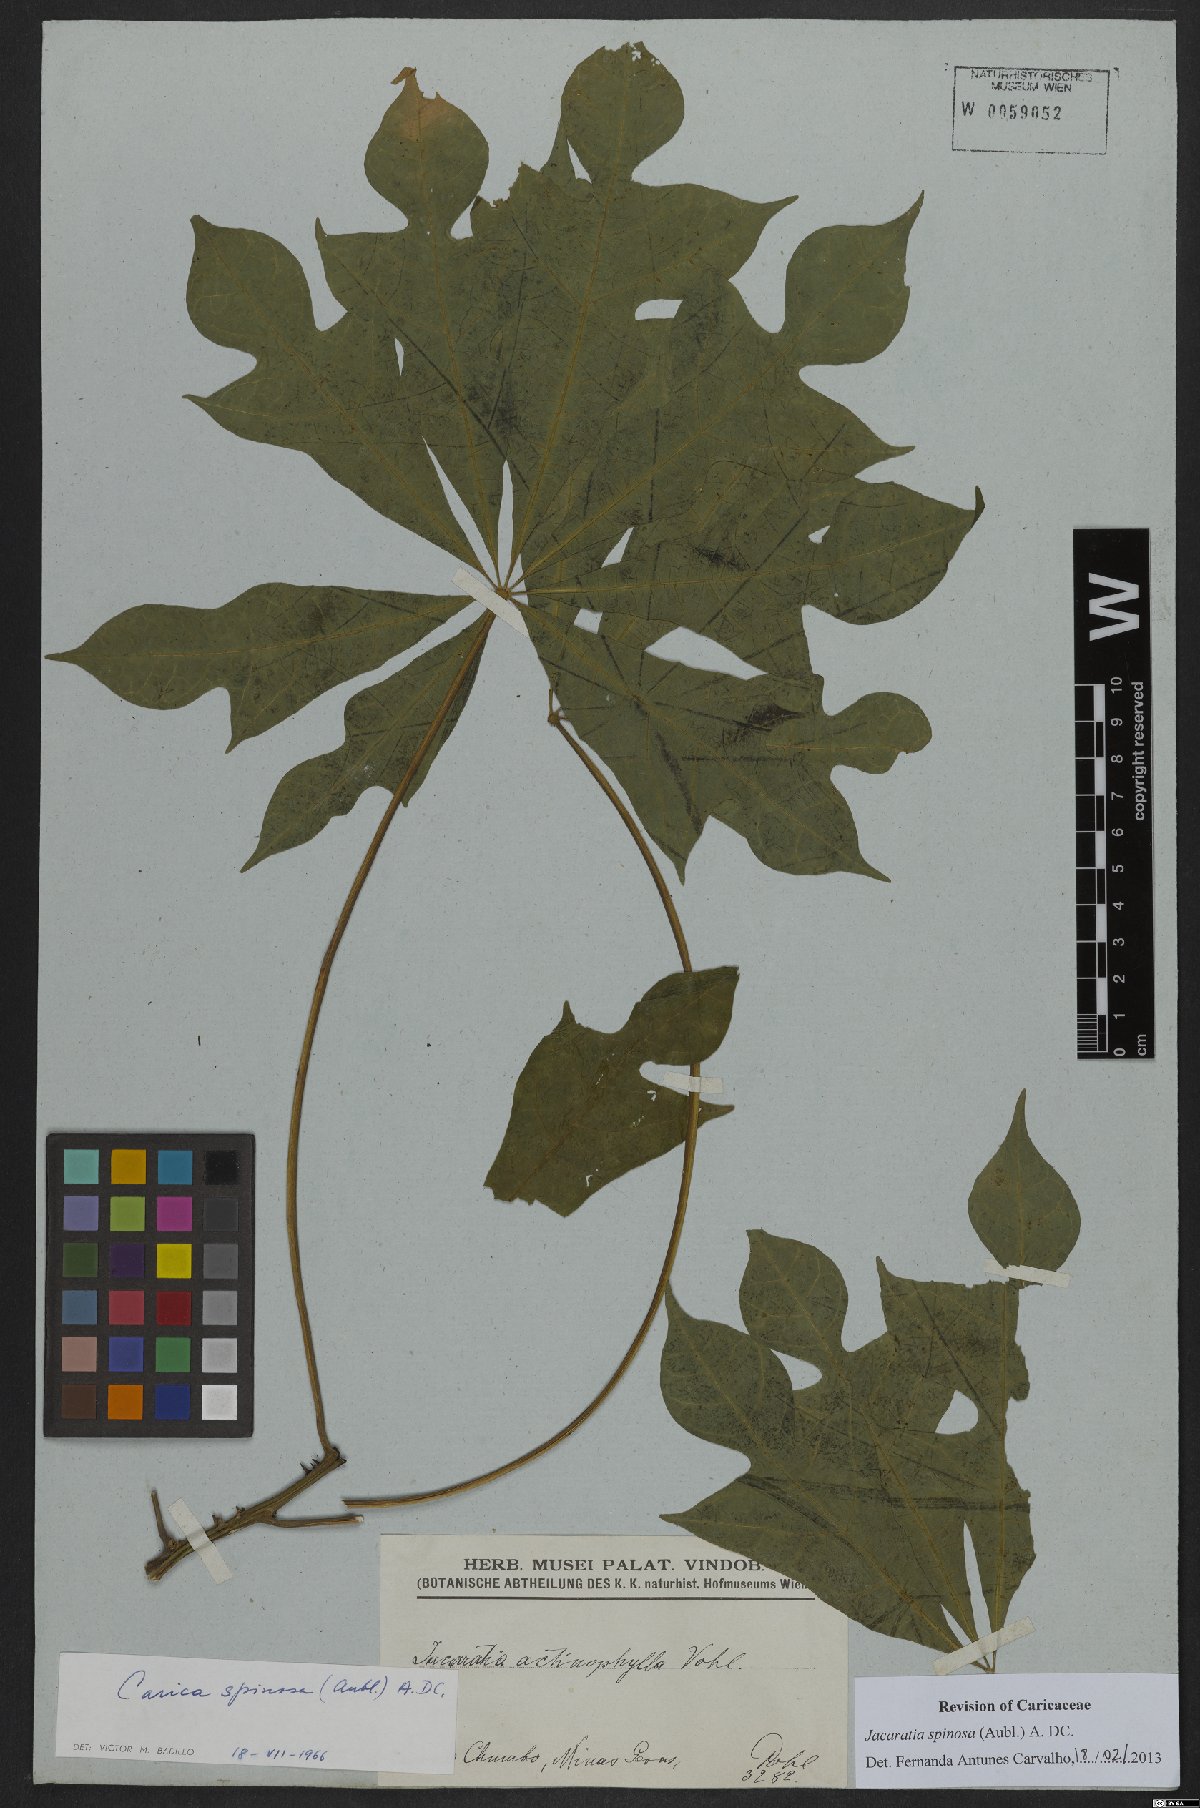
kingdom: Plantae
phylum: Tracheophyta
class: Magnoliopsida
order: Brassicales
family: Caricaceae
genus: Jacaratia
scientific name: Jacaratia spinosa
